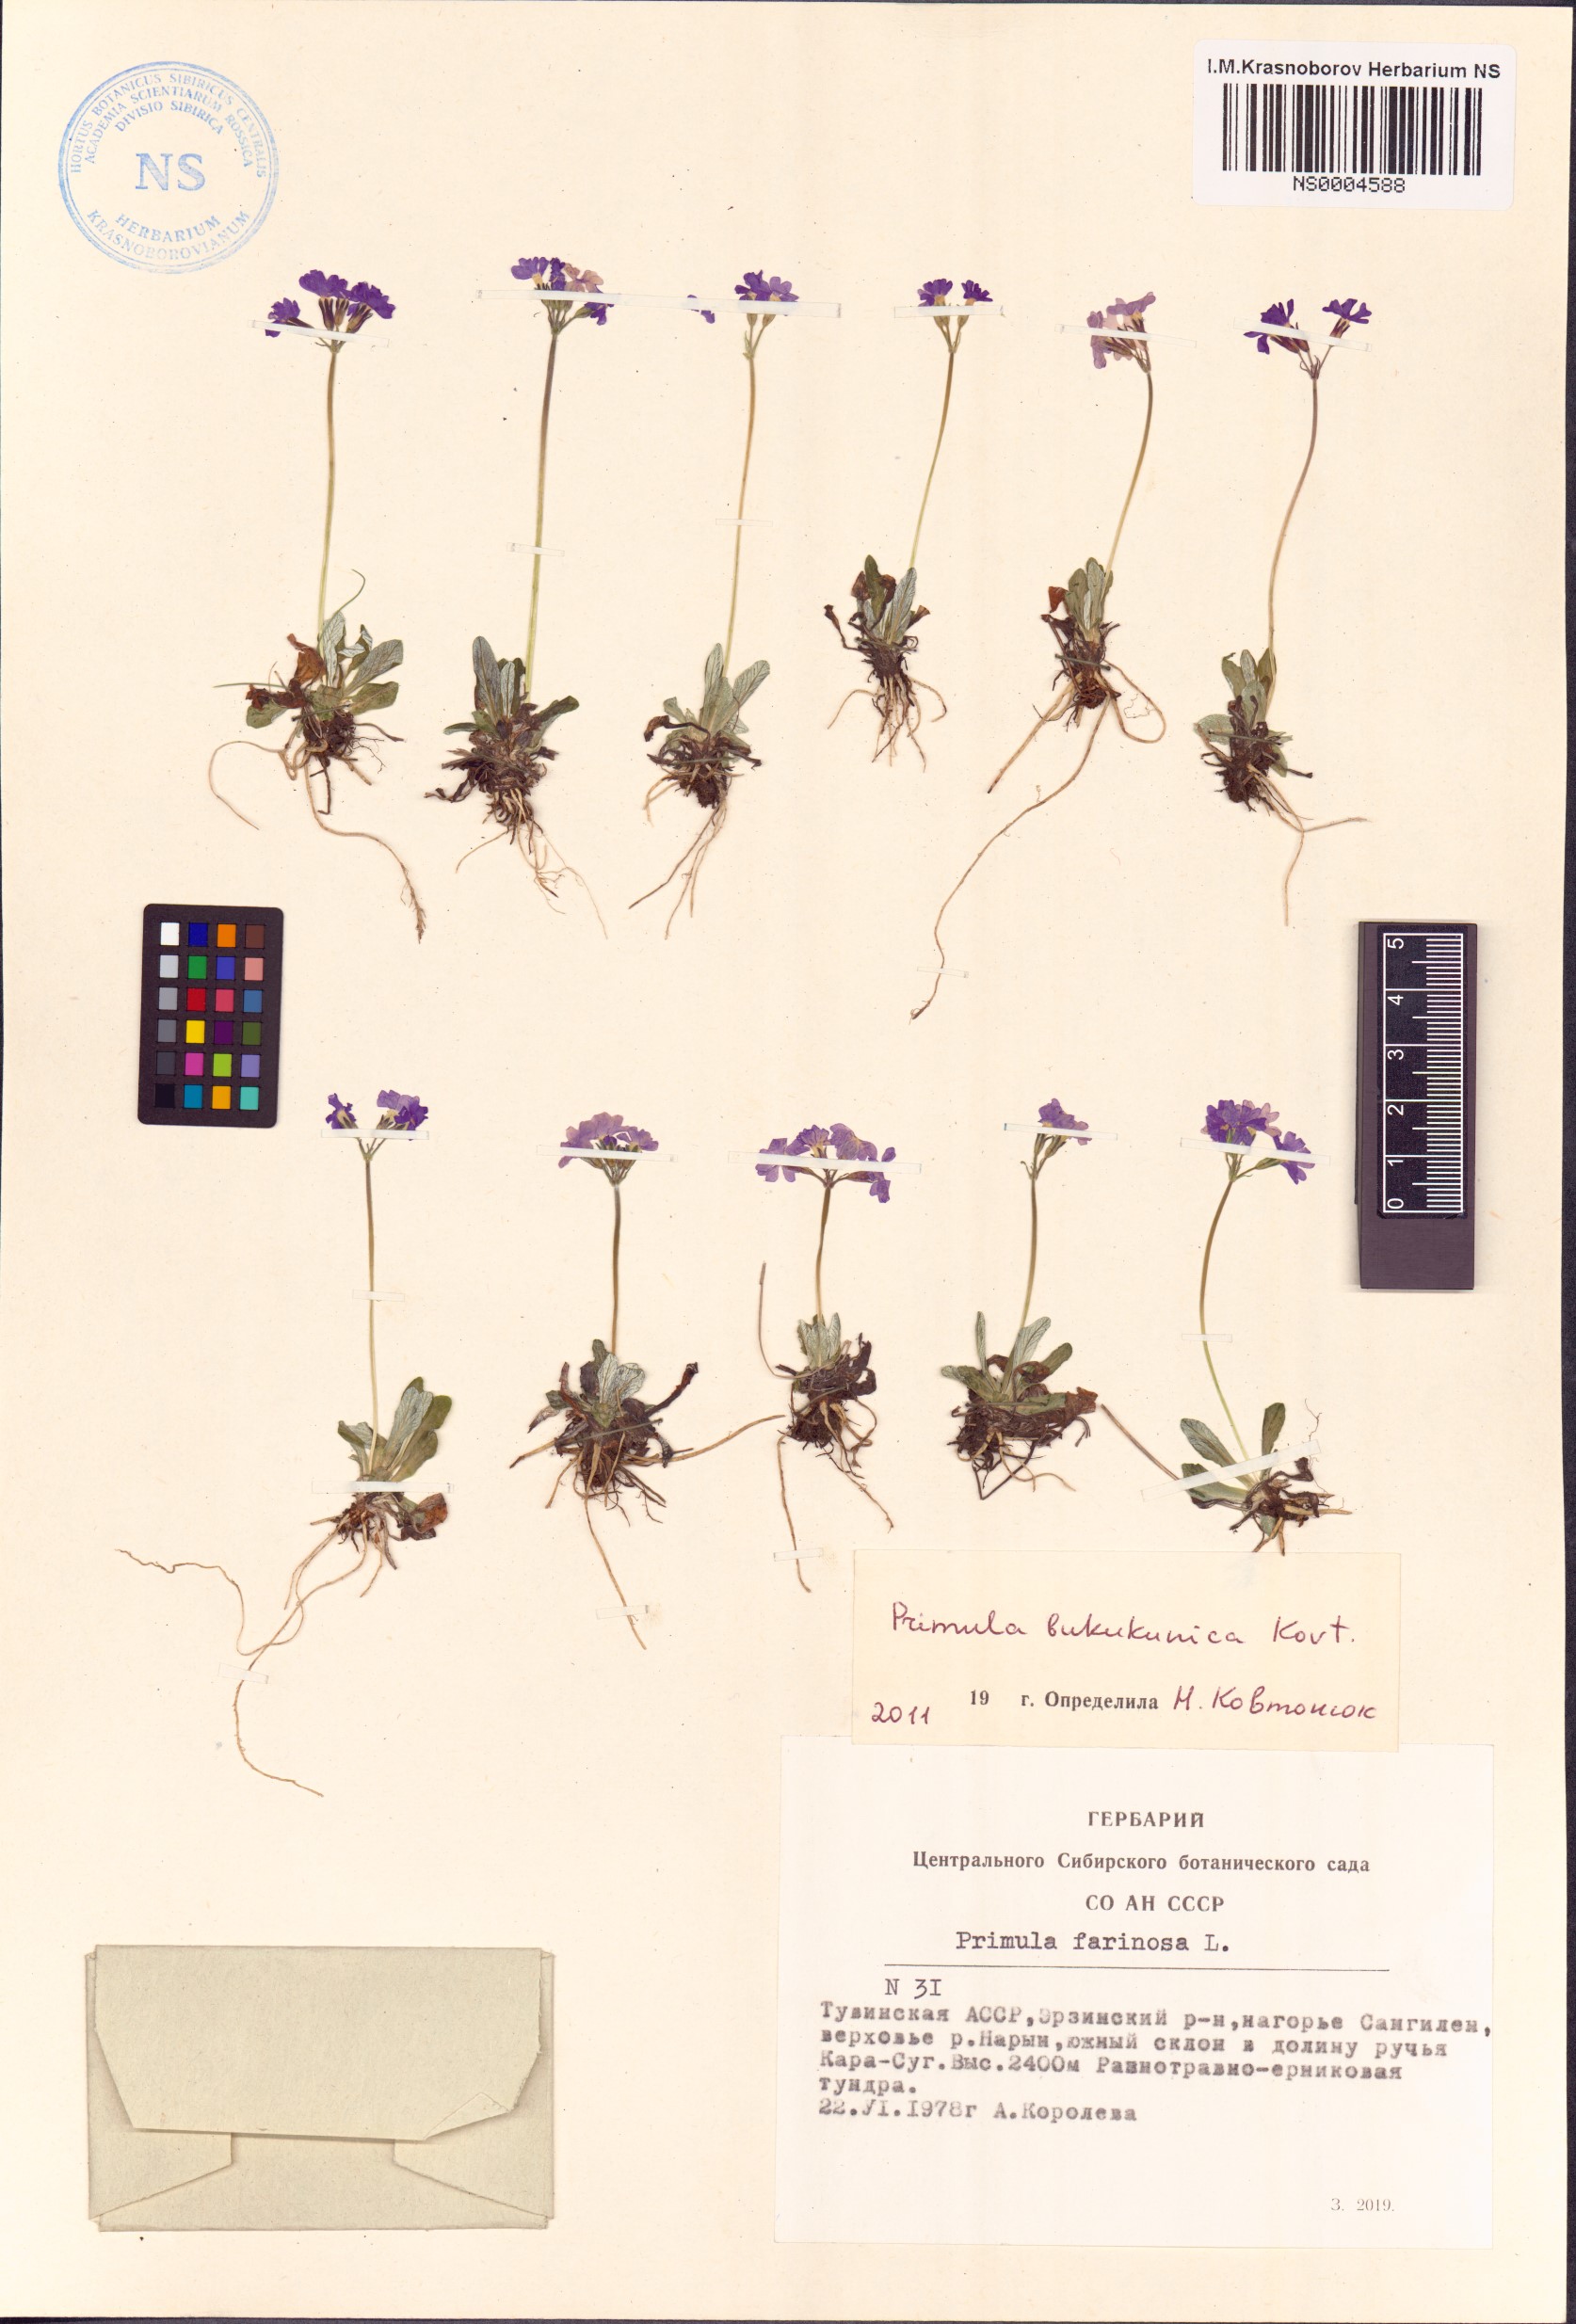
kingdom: Plantae
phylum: Tracheophyta
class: Magnoliopsida
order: Ericales
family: Primulaceae
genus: Primula
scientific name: Primula bukukunica
